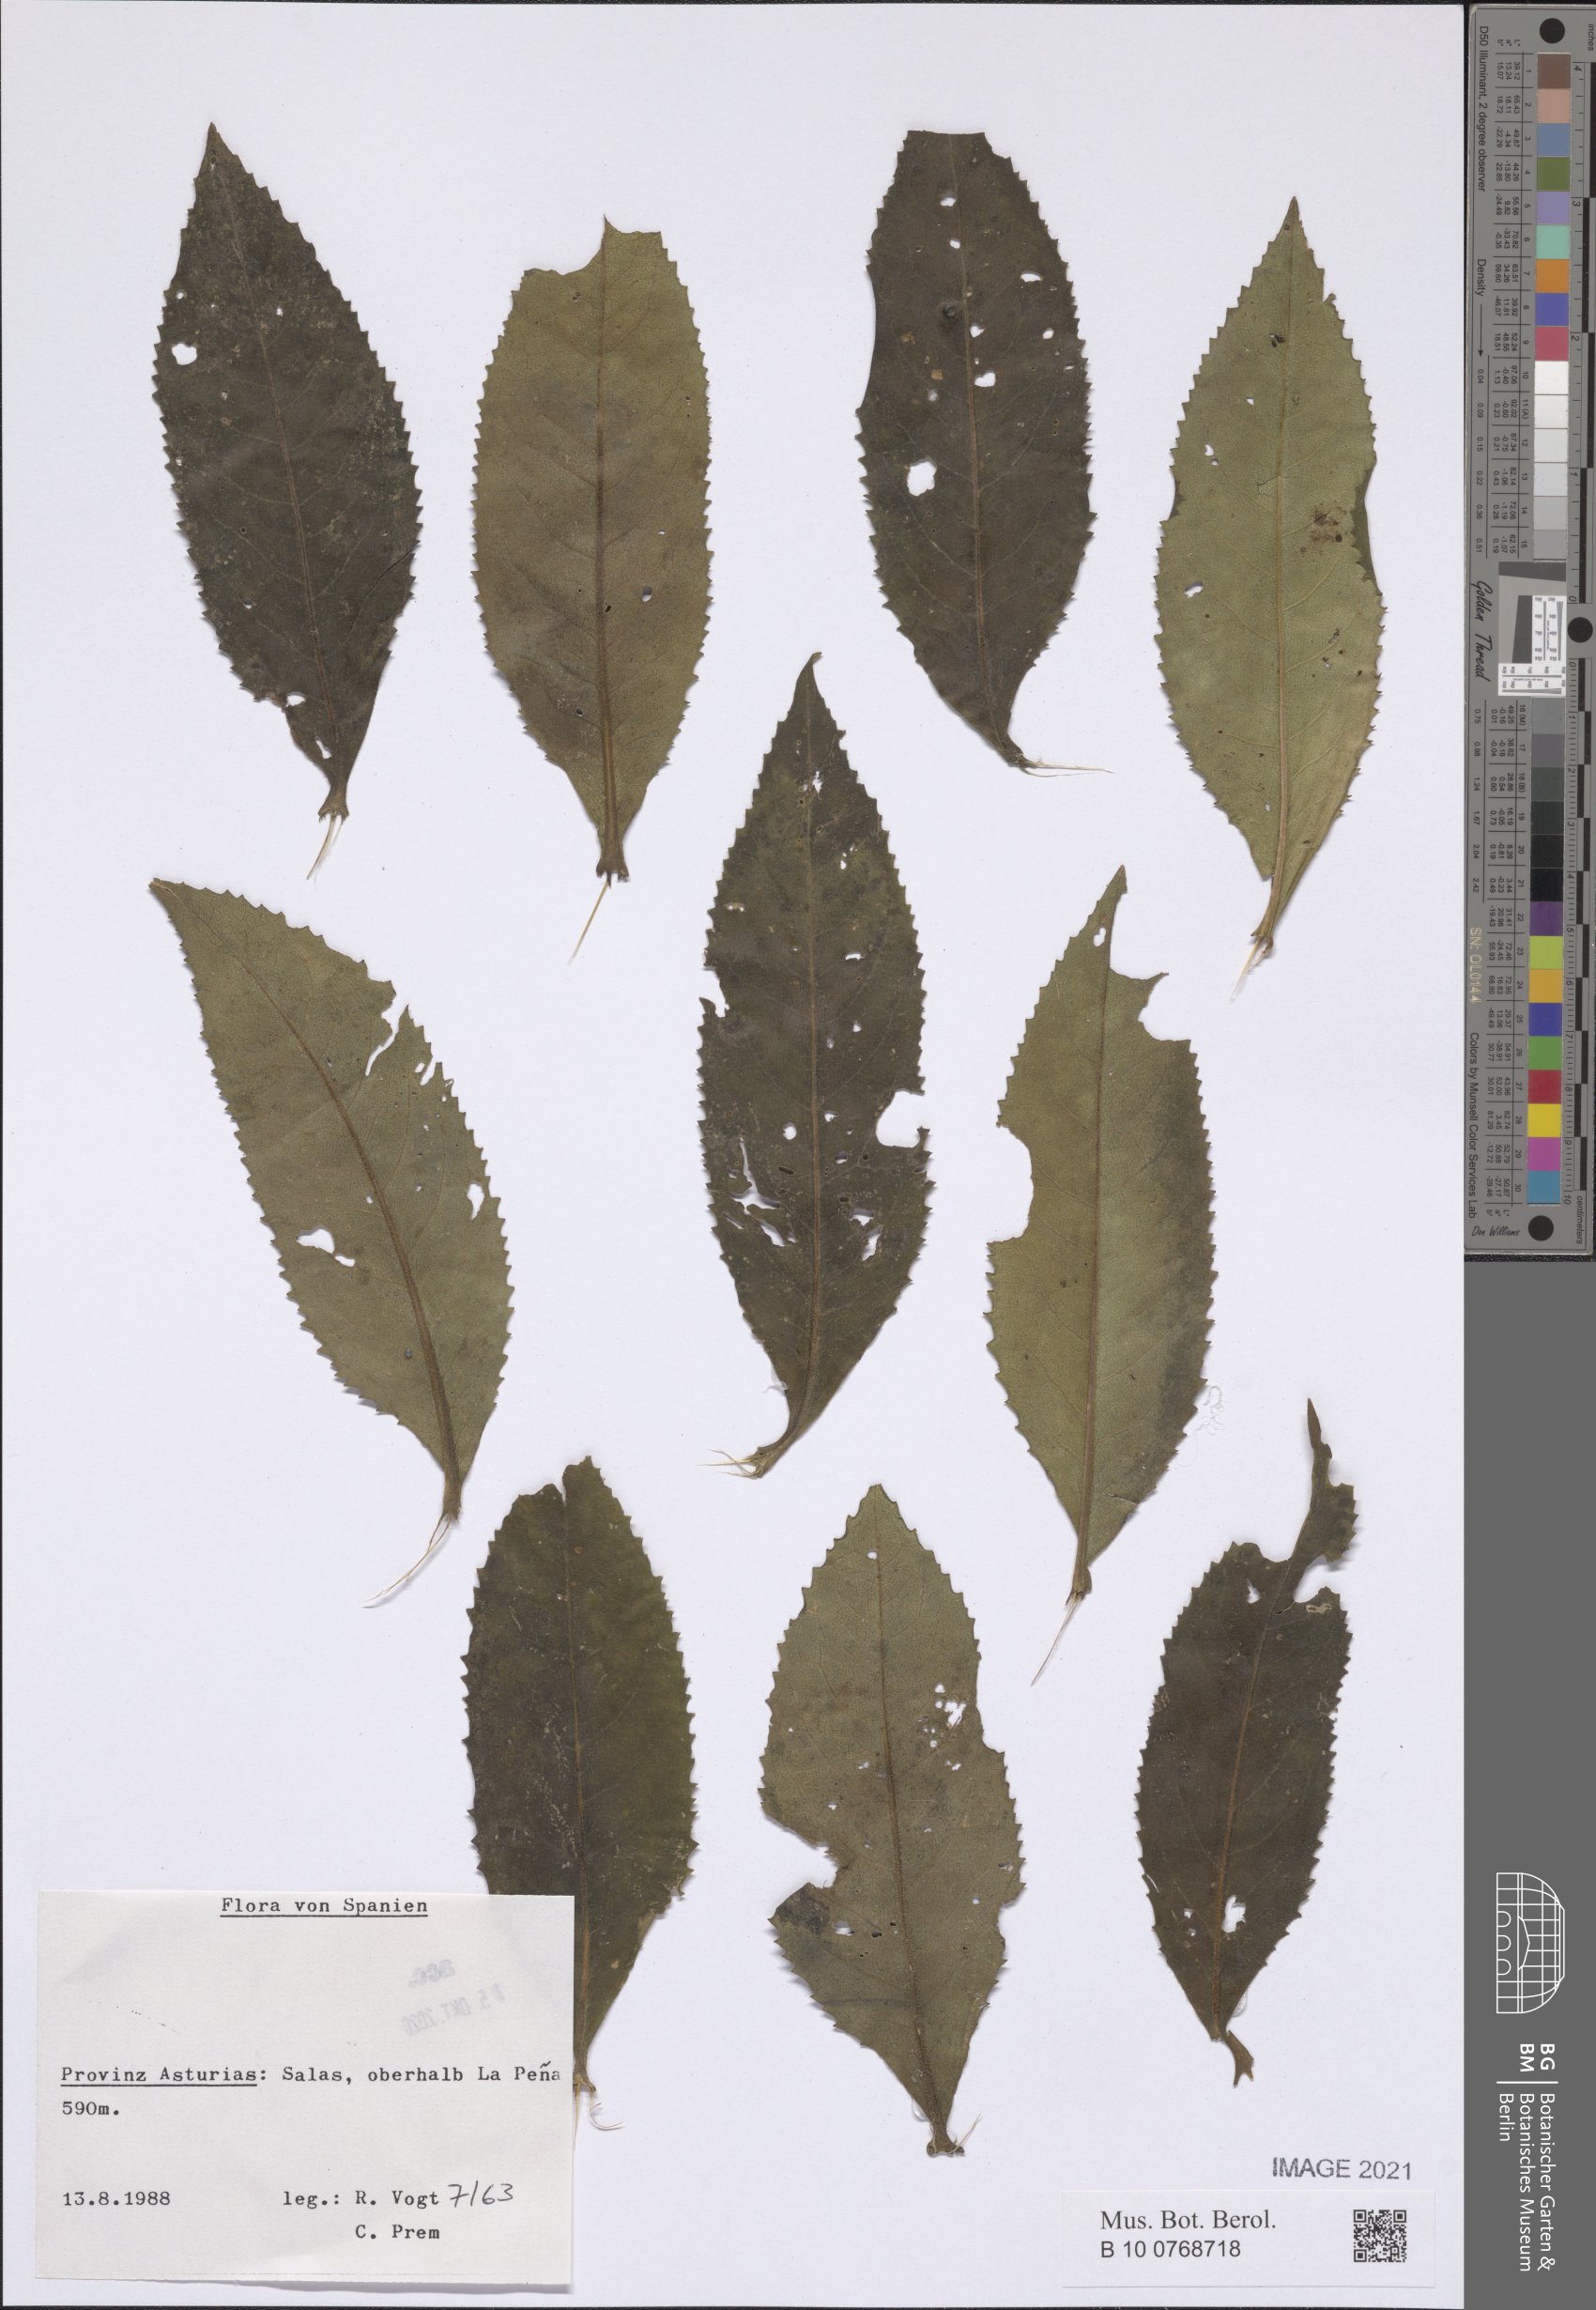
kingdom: Plantae
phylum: Tracheophyta
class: Magnoliopsida
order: Asterales
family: Asteraceae
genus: Senecio
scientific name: Senecio
